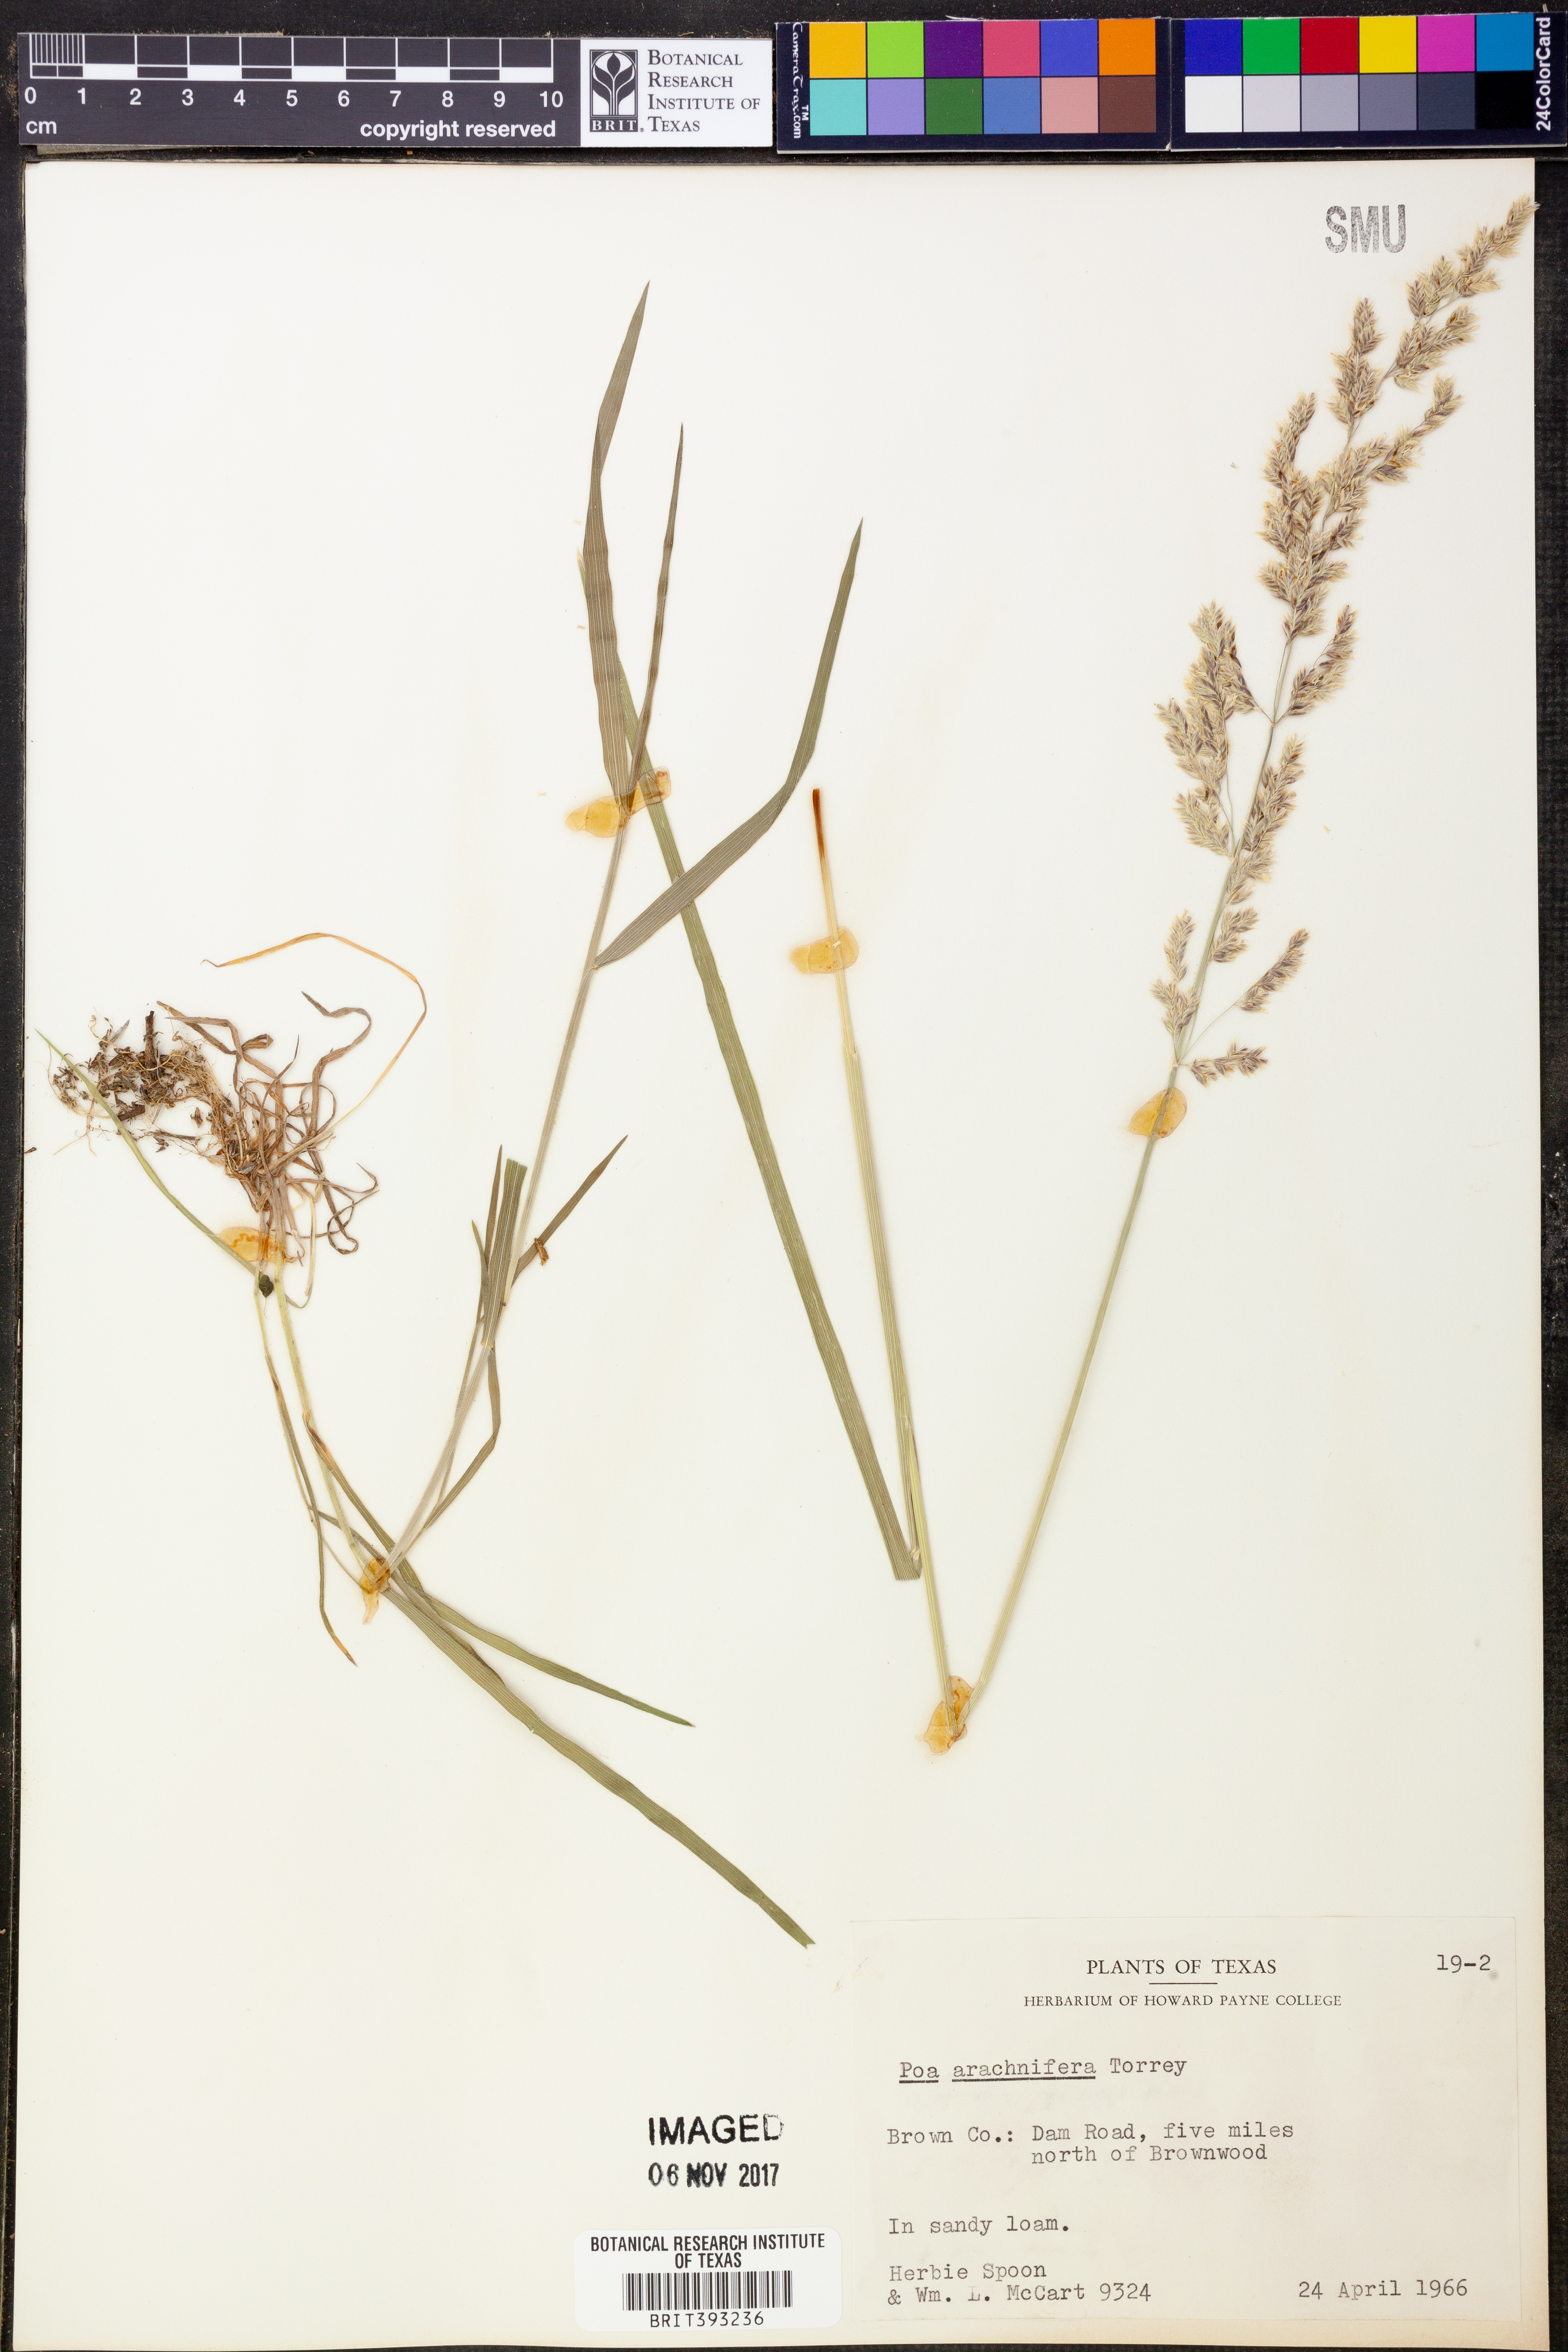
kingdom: Plantae
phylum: Tracheophyta
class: Liliopsida
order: Poales
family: Poaceae
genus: Poa
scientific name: Poa arachnifera
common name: Texas bluegrass
